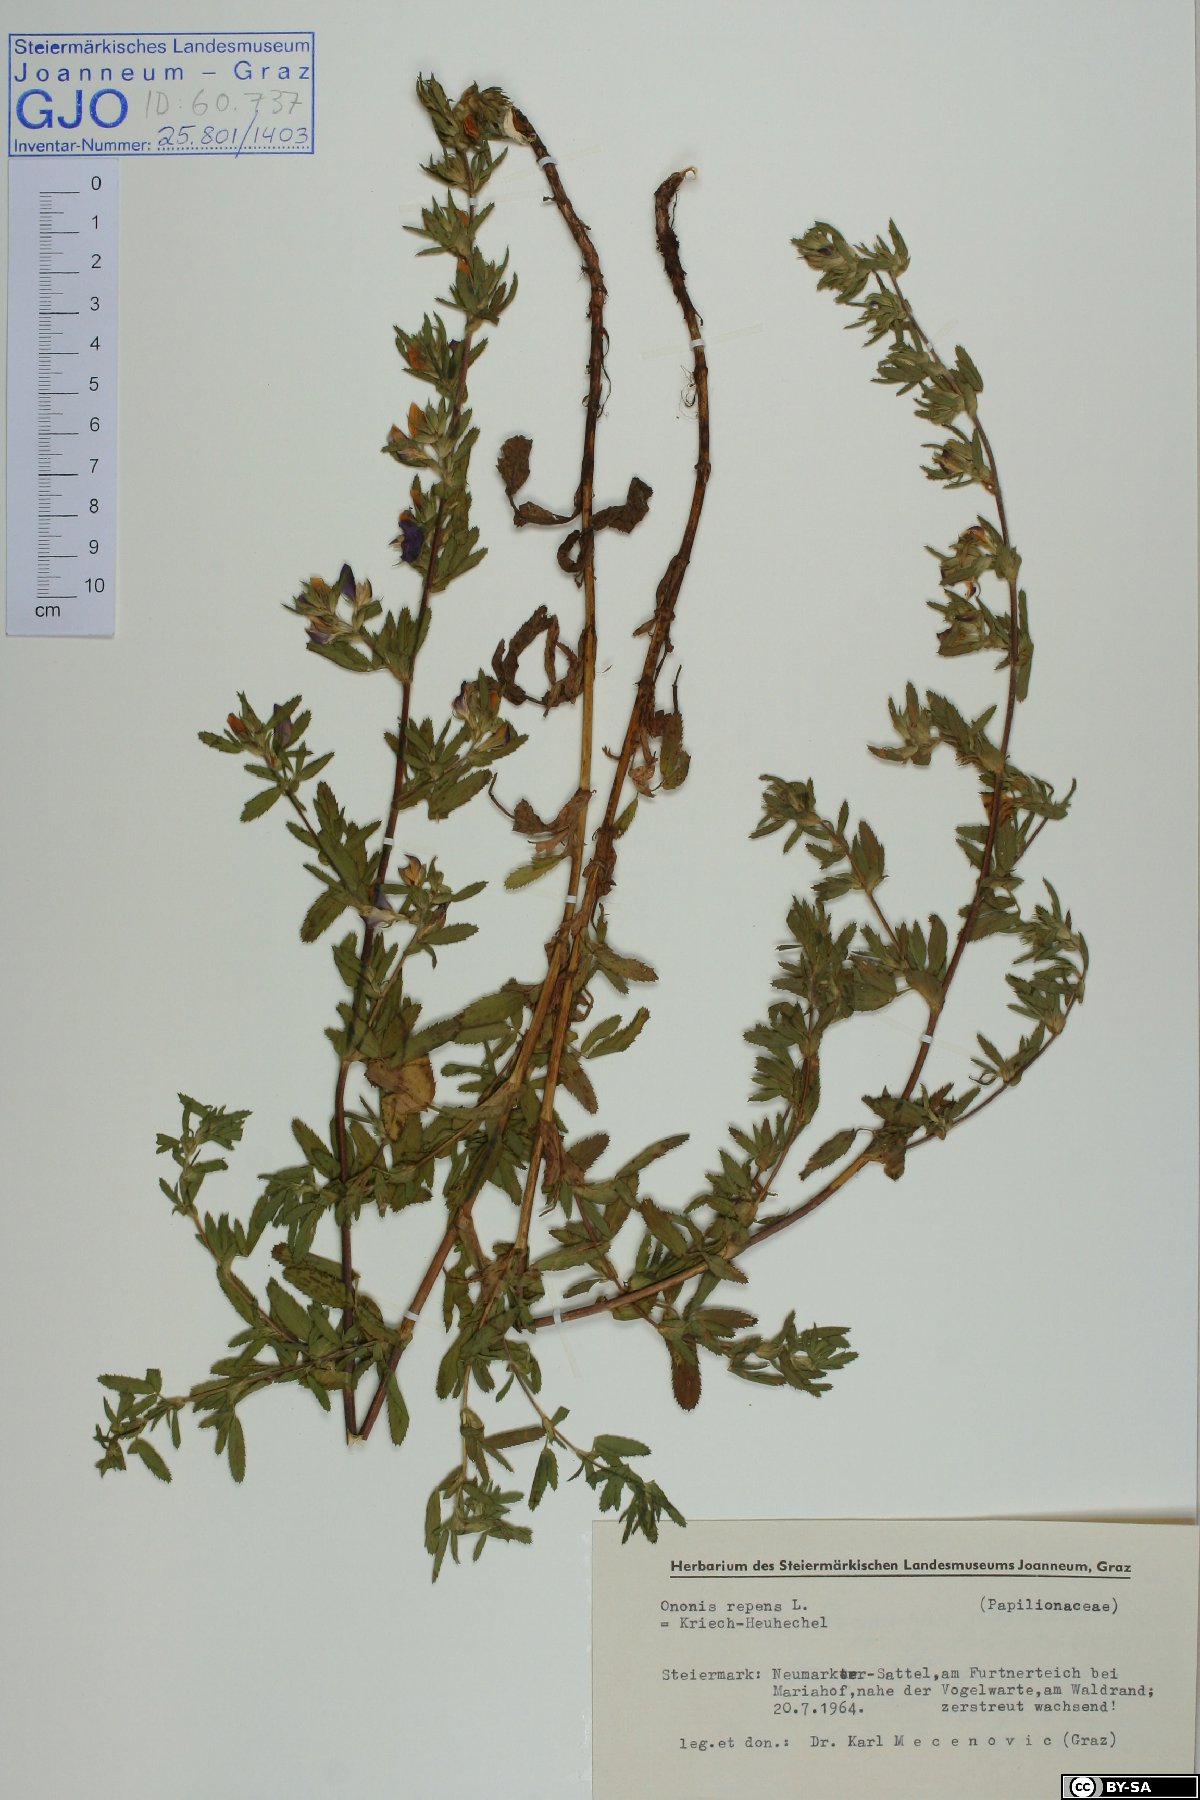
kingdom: Plantae
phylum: Tracheophyta
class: Magnoliopsida
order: Fabales
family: Fabaceae
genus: Ononis
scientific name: Ononis spinosa
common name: Spiny restharrow
